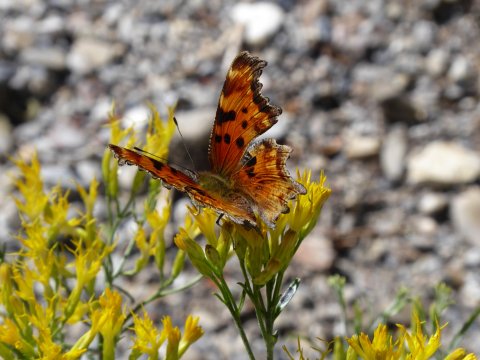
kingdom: Animalia
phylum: Arthropoda
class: Insecta
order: Lepidoptera
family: Nymphalidae
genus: Polygonia
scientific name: Polygonia gracilis
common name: Hoary Comma
